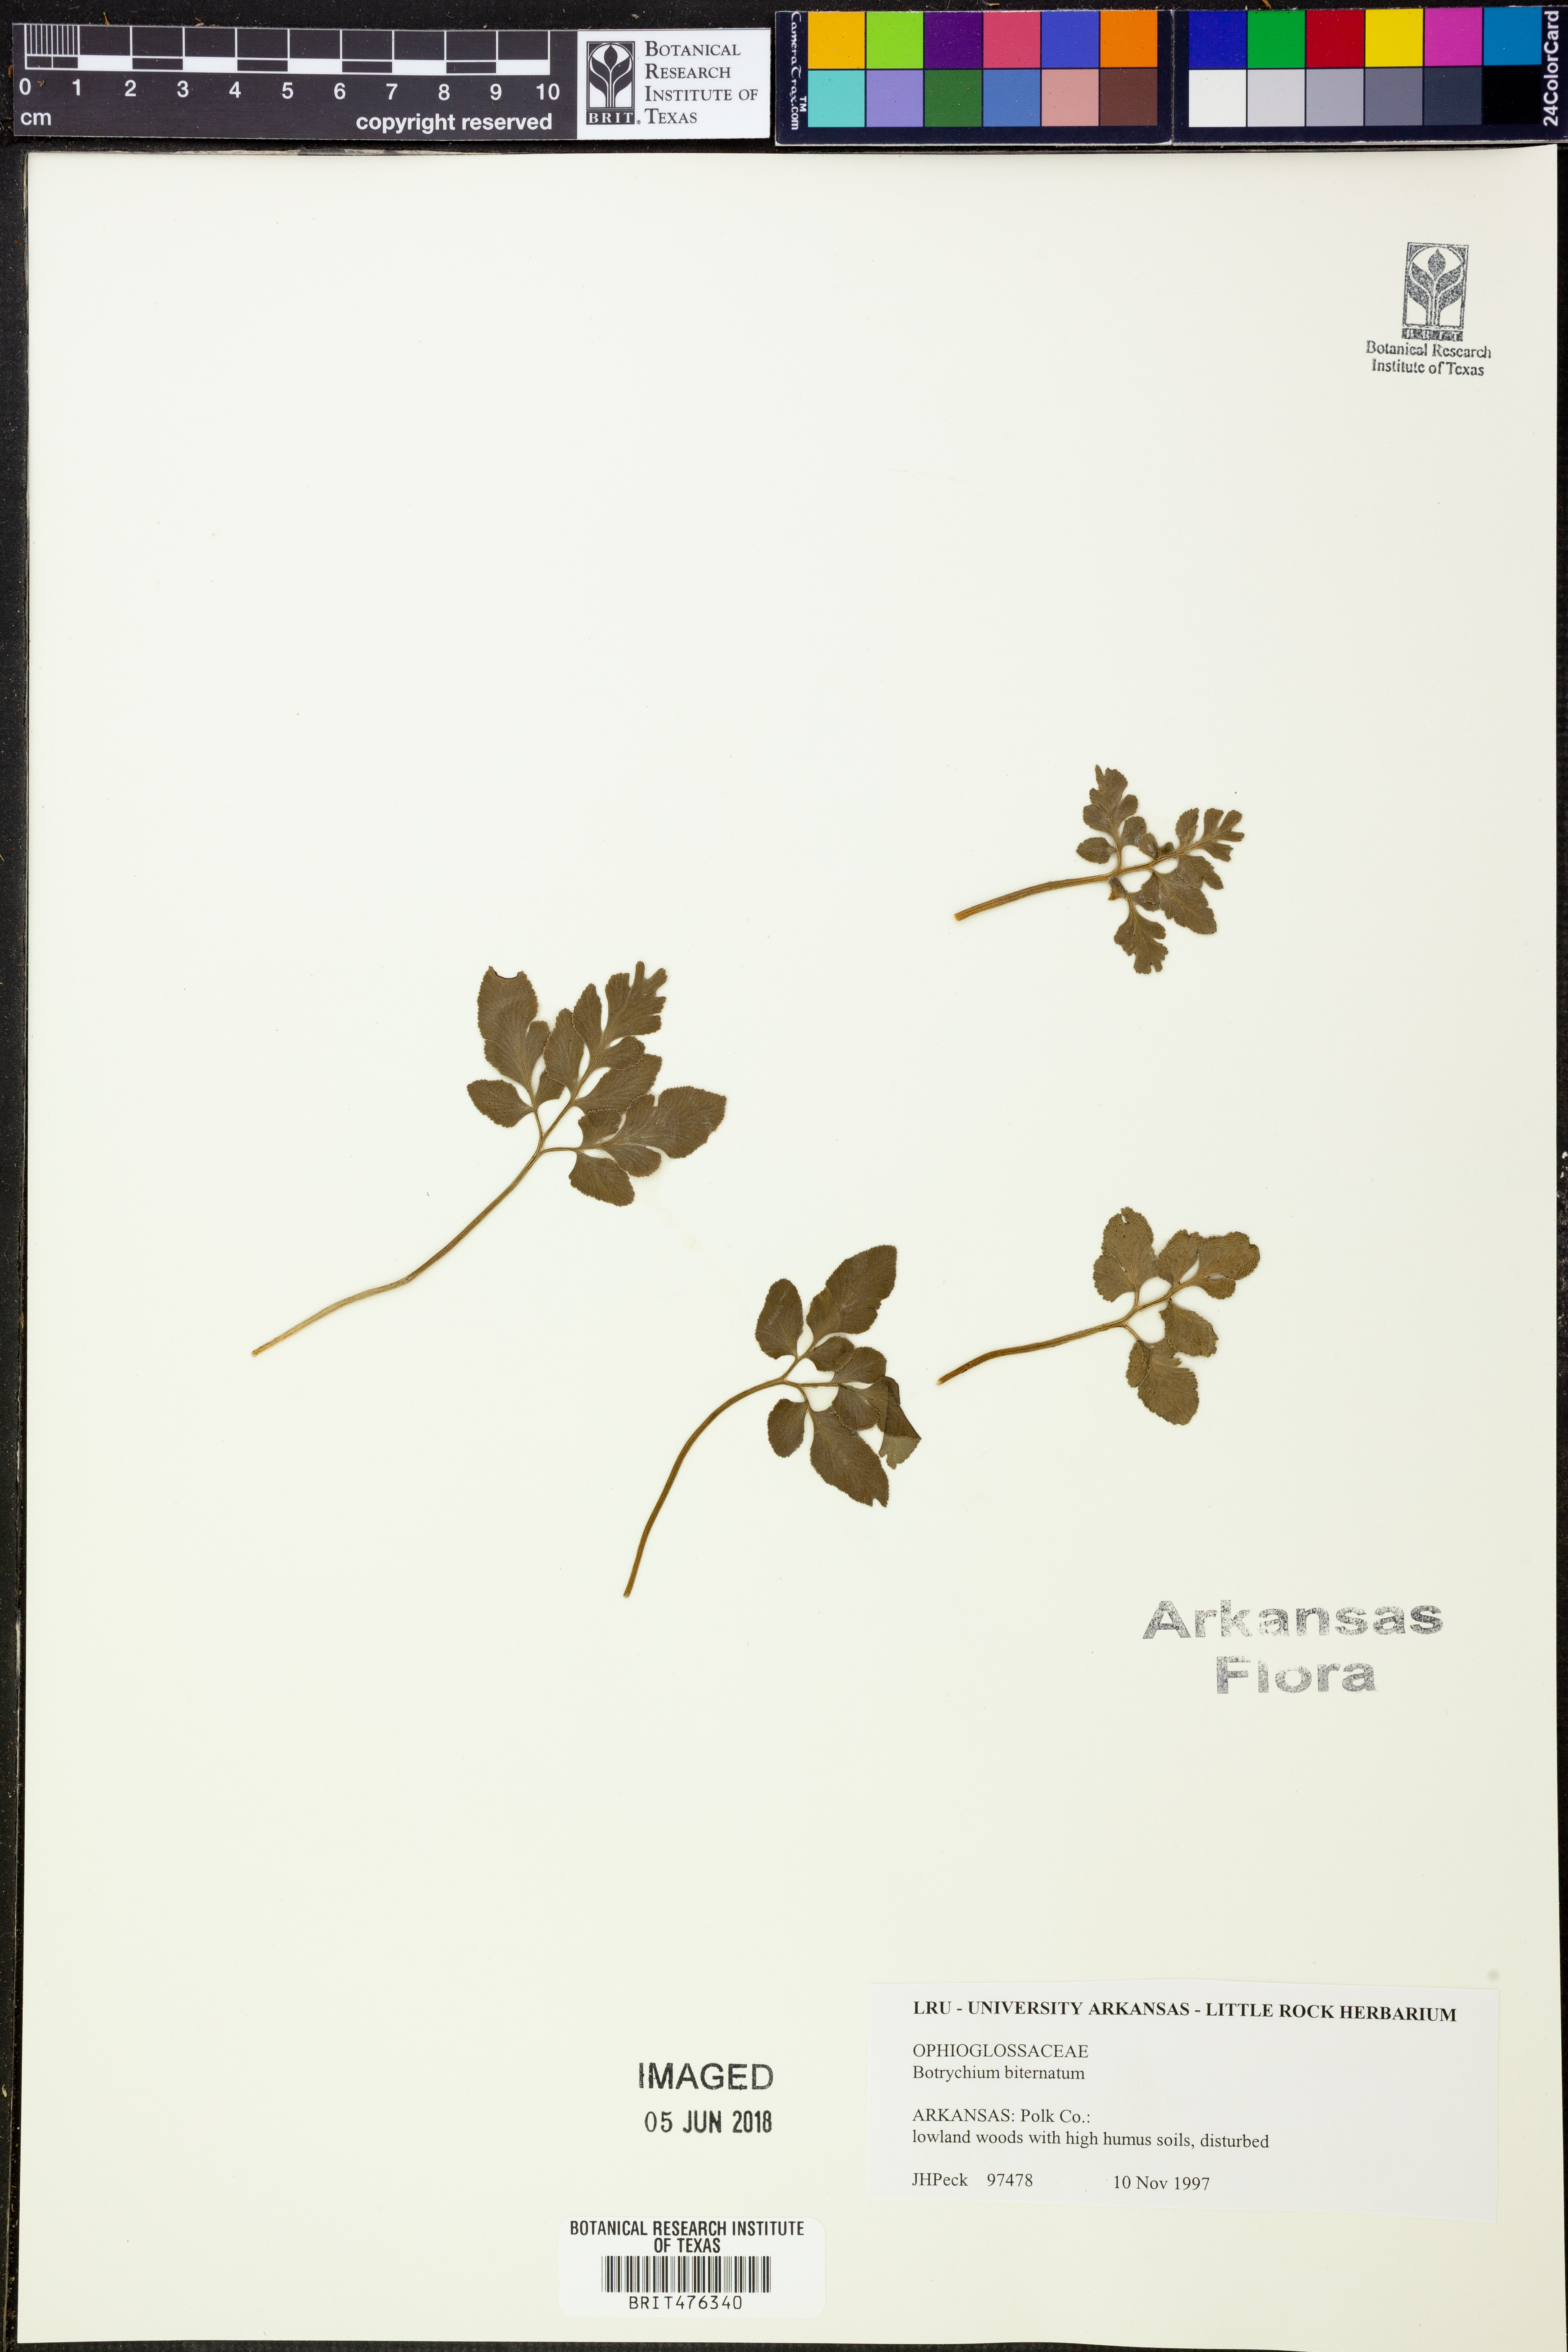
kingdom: Plantae
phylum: Tracheophyta
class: Polypodiopsida
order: Ophioglossales
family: Ophioglossaceae
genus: Sceptridium
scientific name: Sceptridium biternatum
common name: Sparse-lobed grapefern
